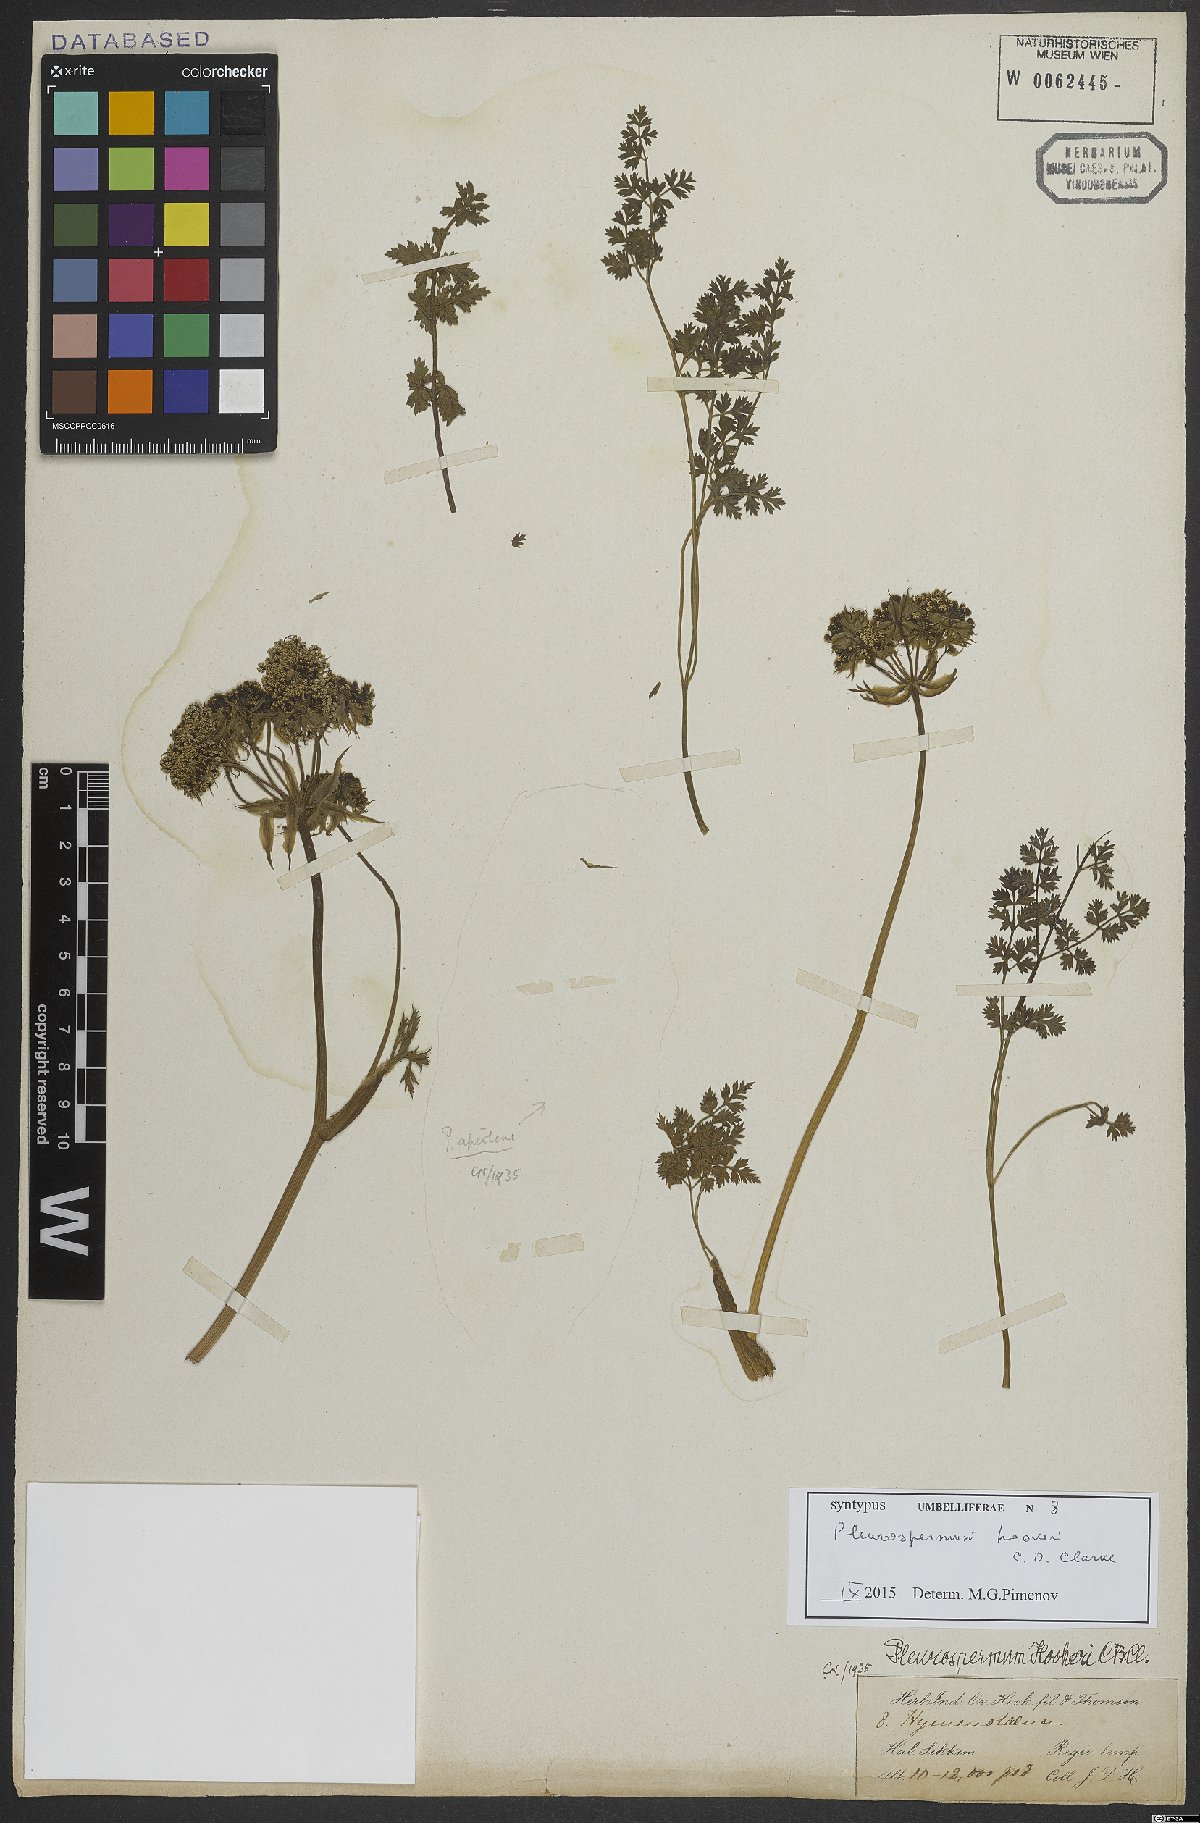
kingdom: Plantae
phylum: Tracheophyta
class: Magnoliopsida
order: Apiales
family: Apiaceae
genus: Pleurospermum
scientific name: Pleurospermum hookeri
